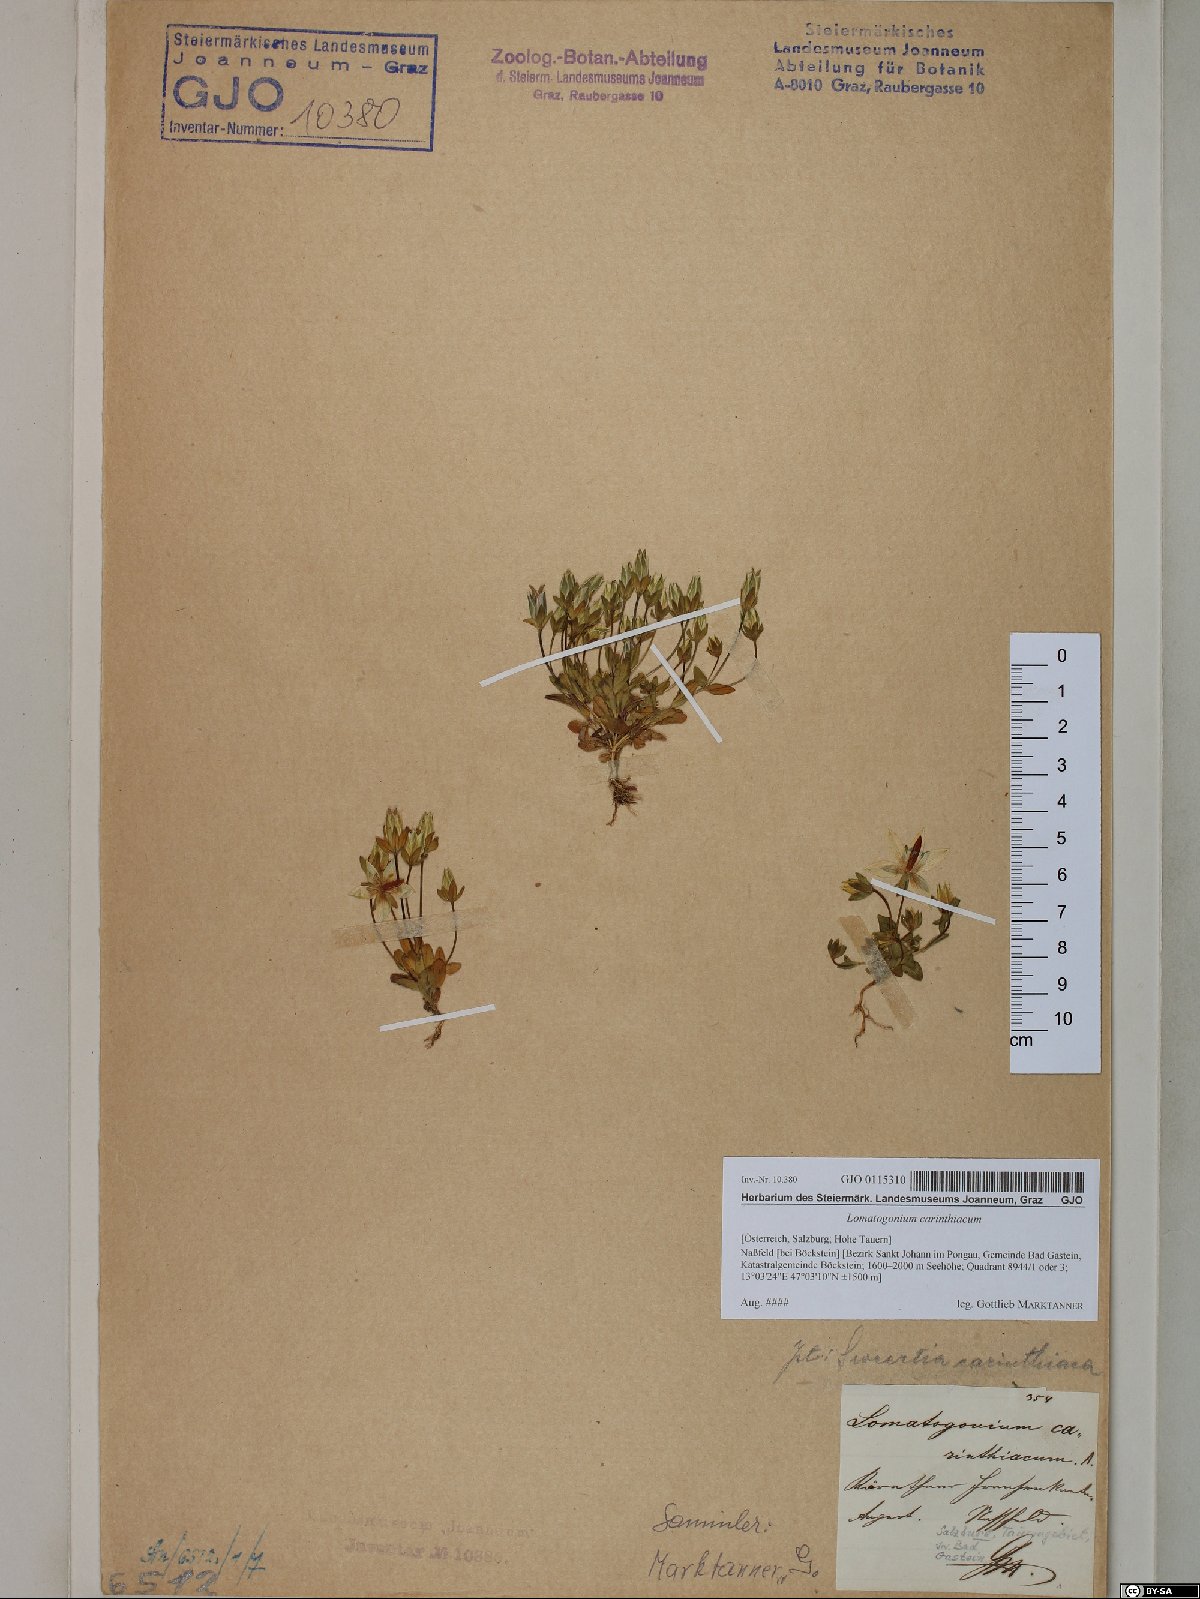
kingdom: Plantae
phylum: Tracheophyta
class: Magnoliopsida
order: Gentianales
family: Gentianaceae
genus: Lomatogonium
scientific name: Lomatogonium carinthiacum
